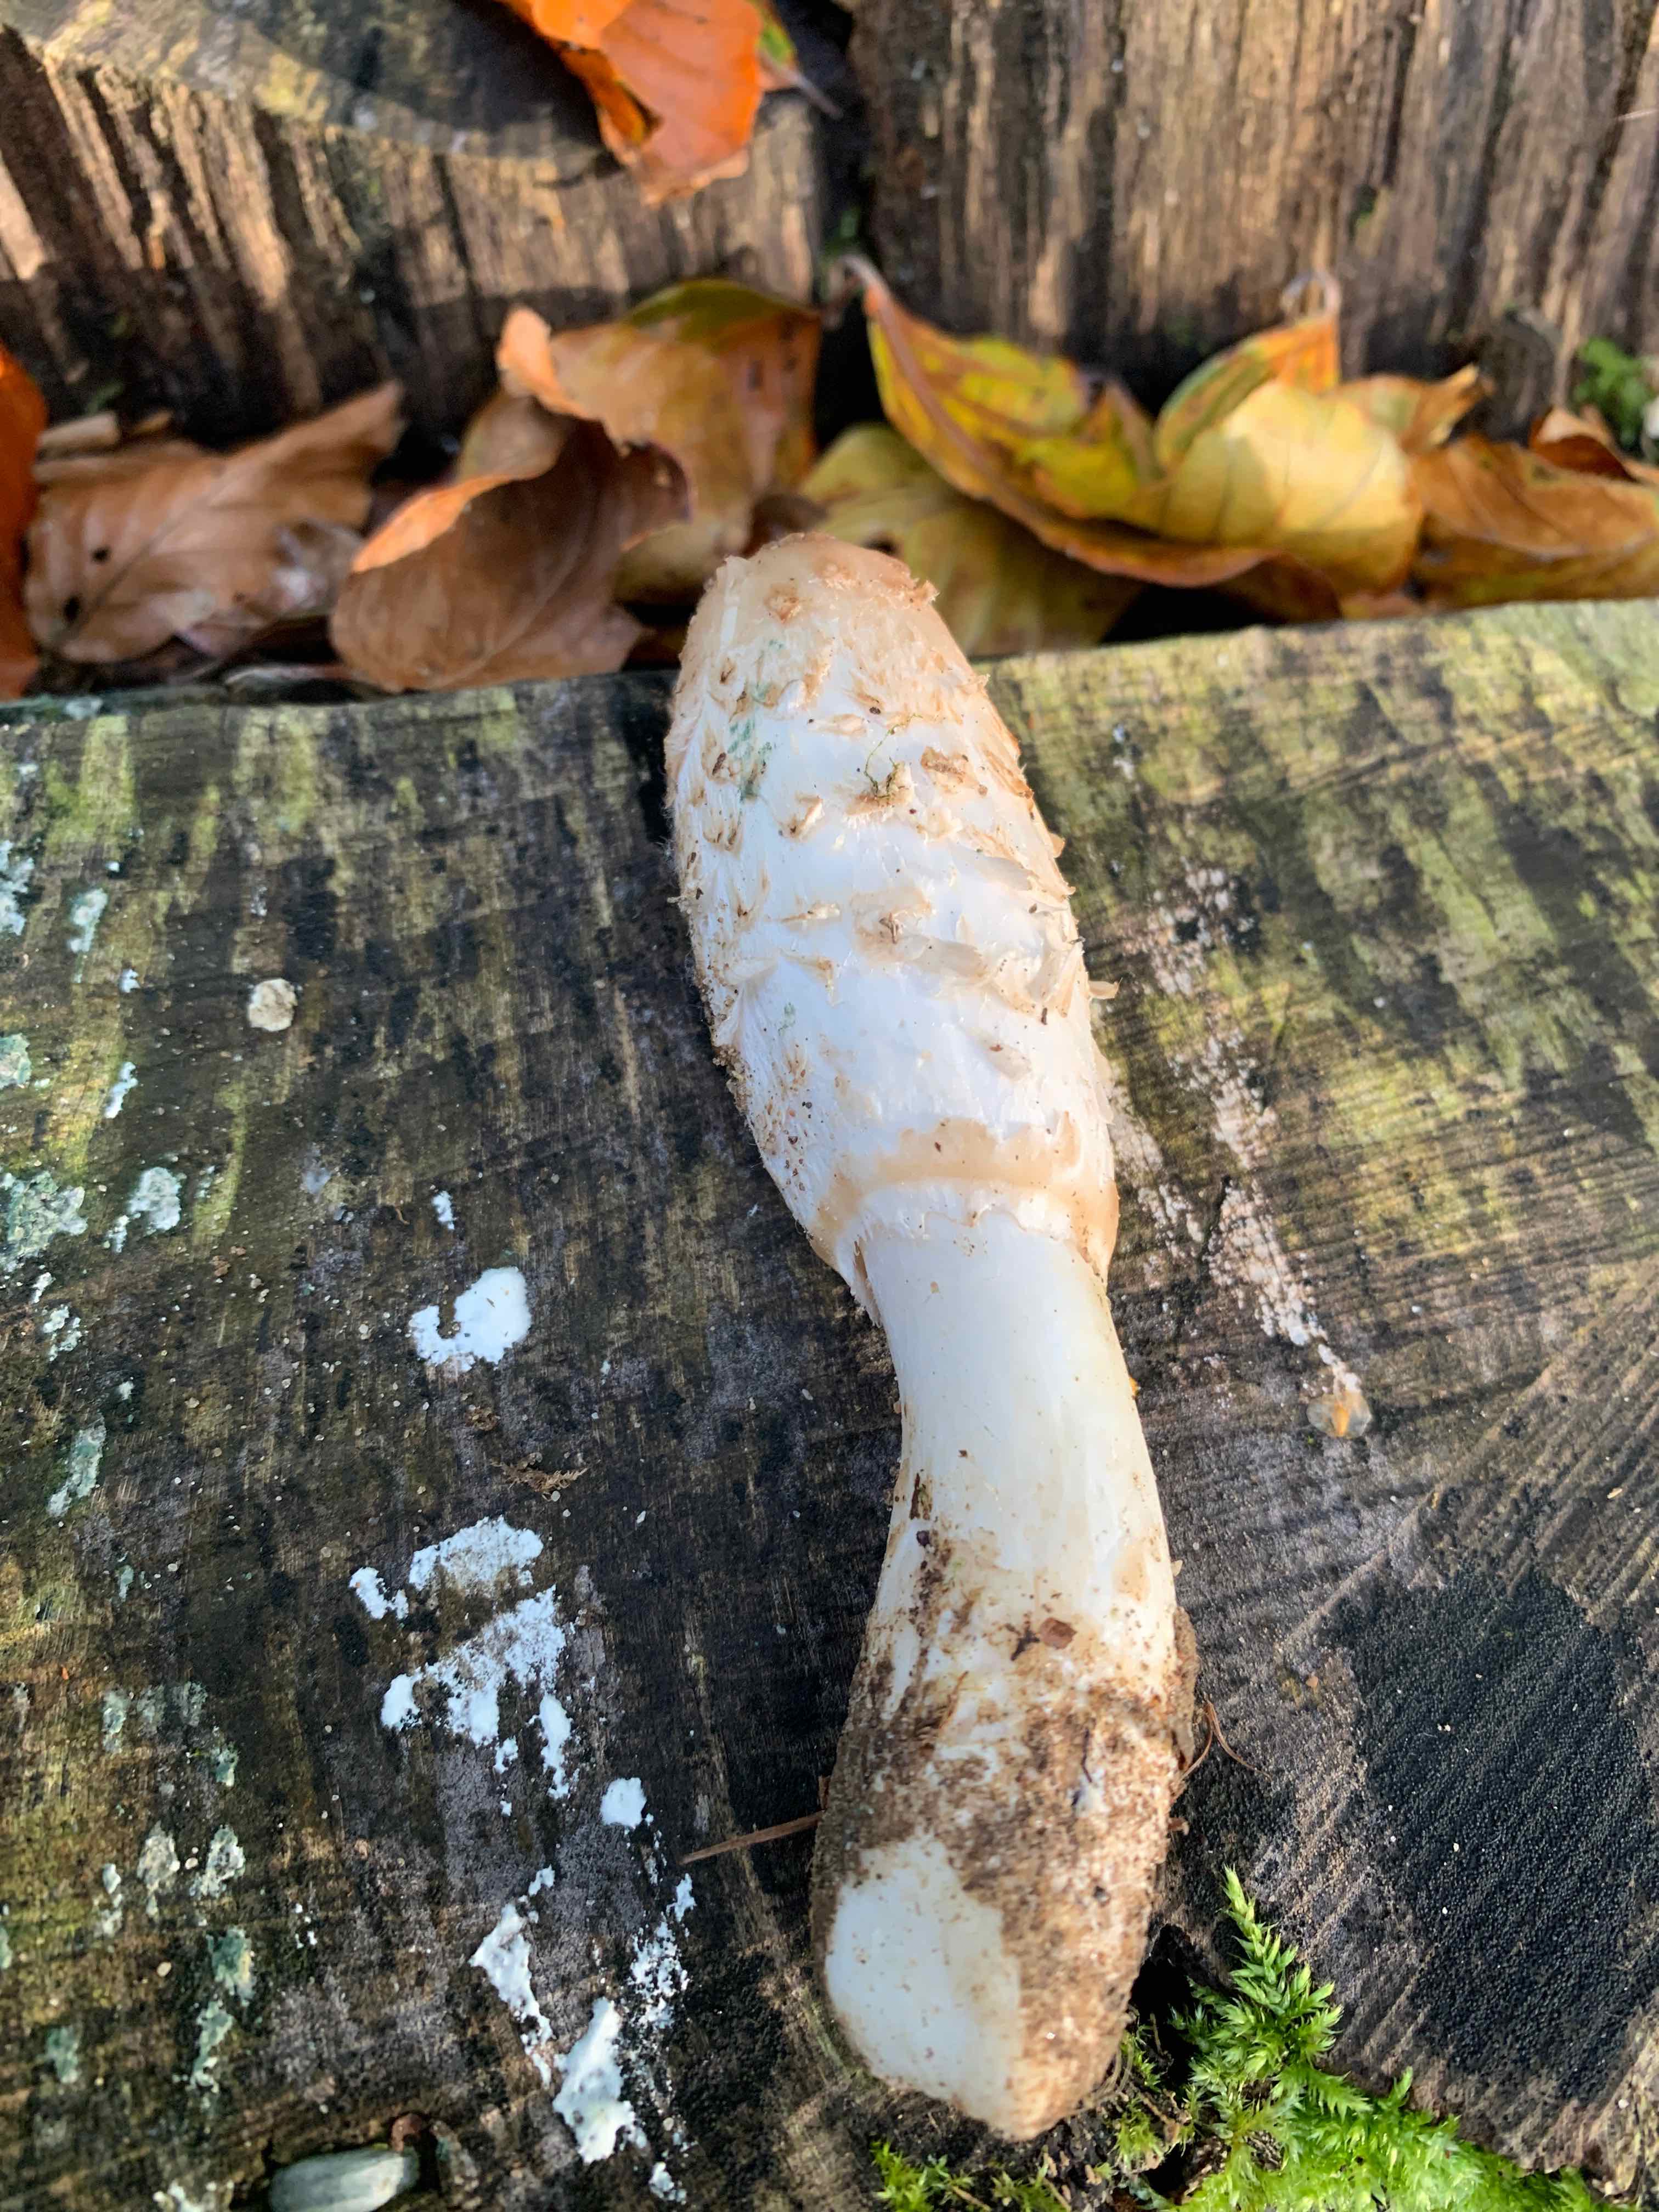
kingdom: Fungi
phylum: Basidiomycota
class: Agaricomycetes
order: Agaricales
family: Agaricaceae
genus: Coprinus
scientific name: Coprinus comatus
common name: stor parykhat
